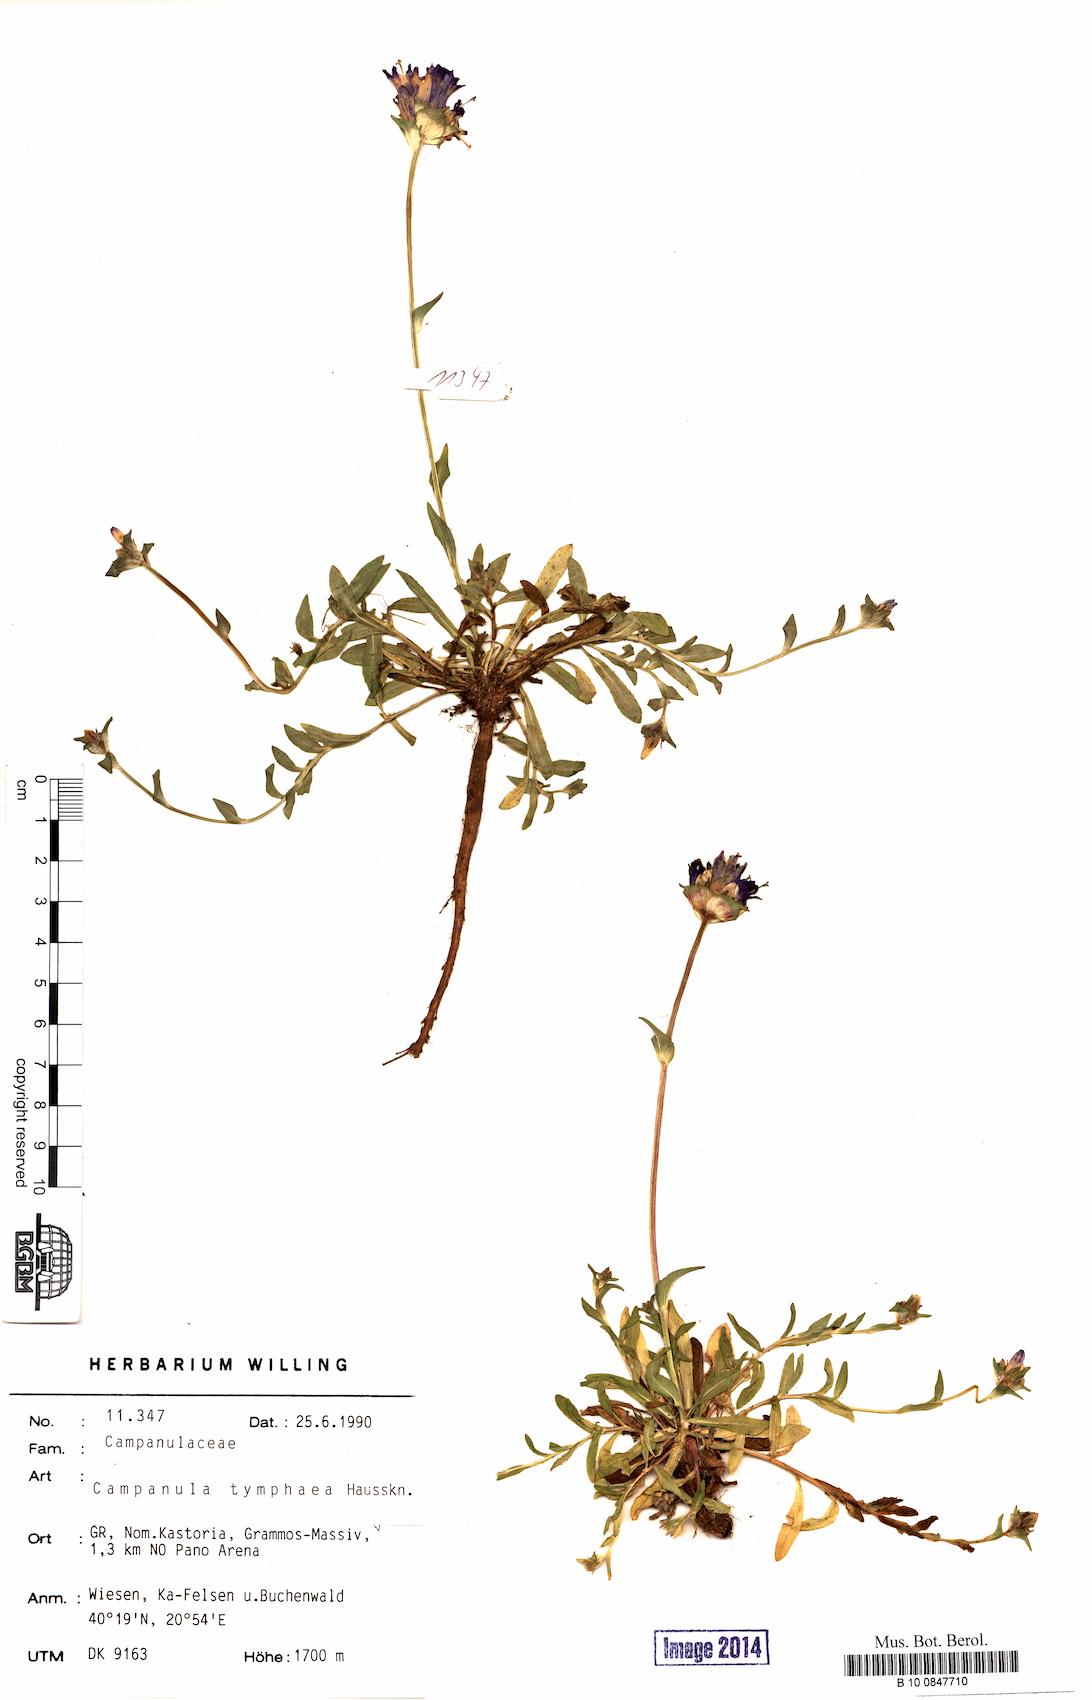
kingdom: Plantae
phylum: Tracheophyta
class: Magnoliopsida
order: Asterales
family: Campanulaceae
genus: Campanula
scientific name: Campanula tymphaea
